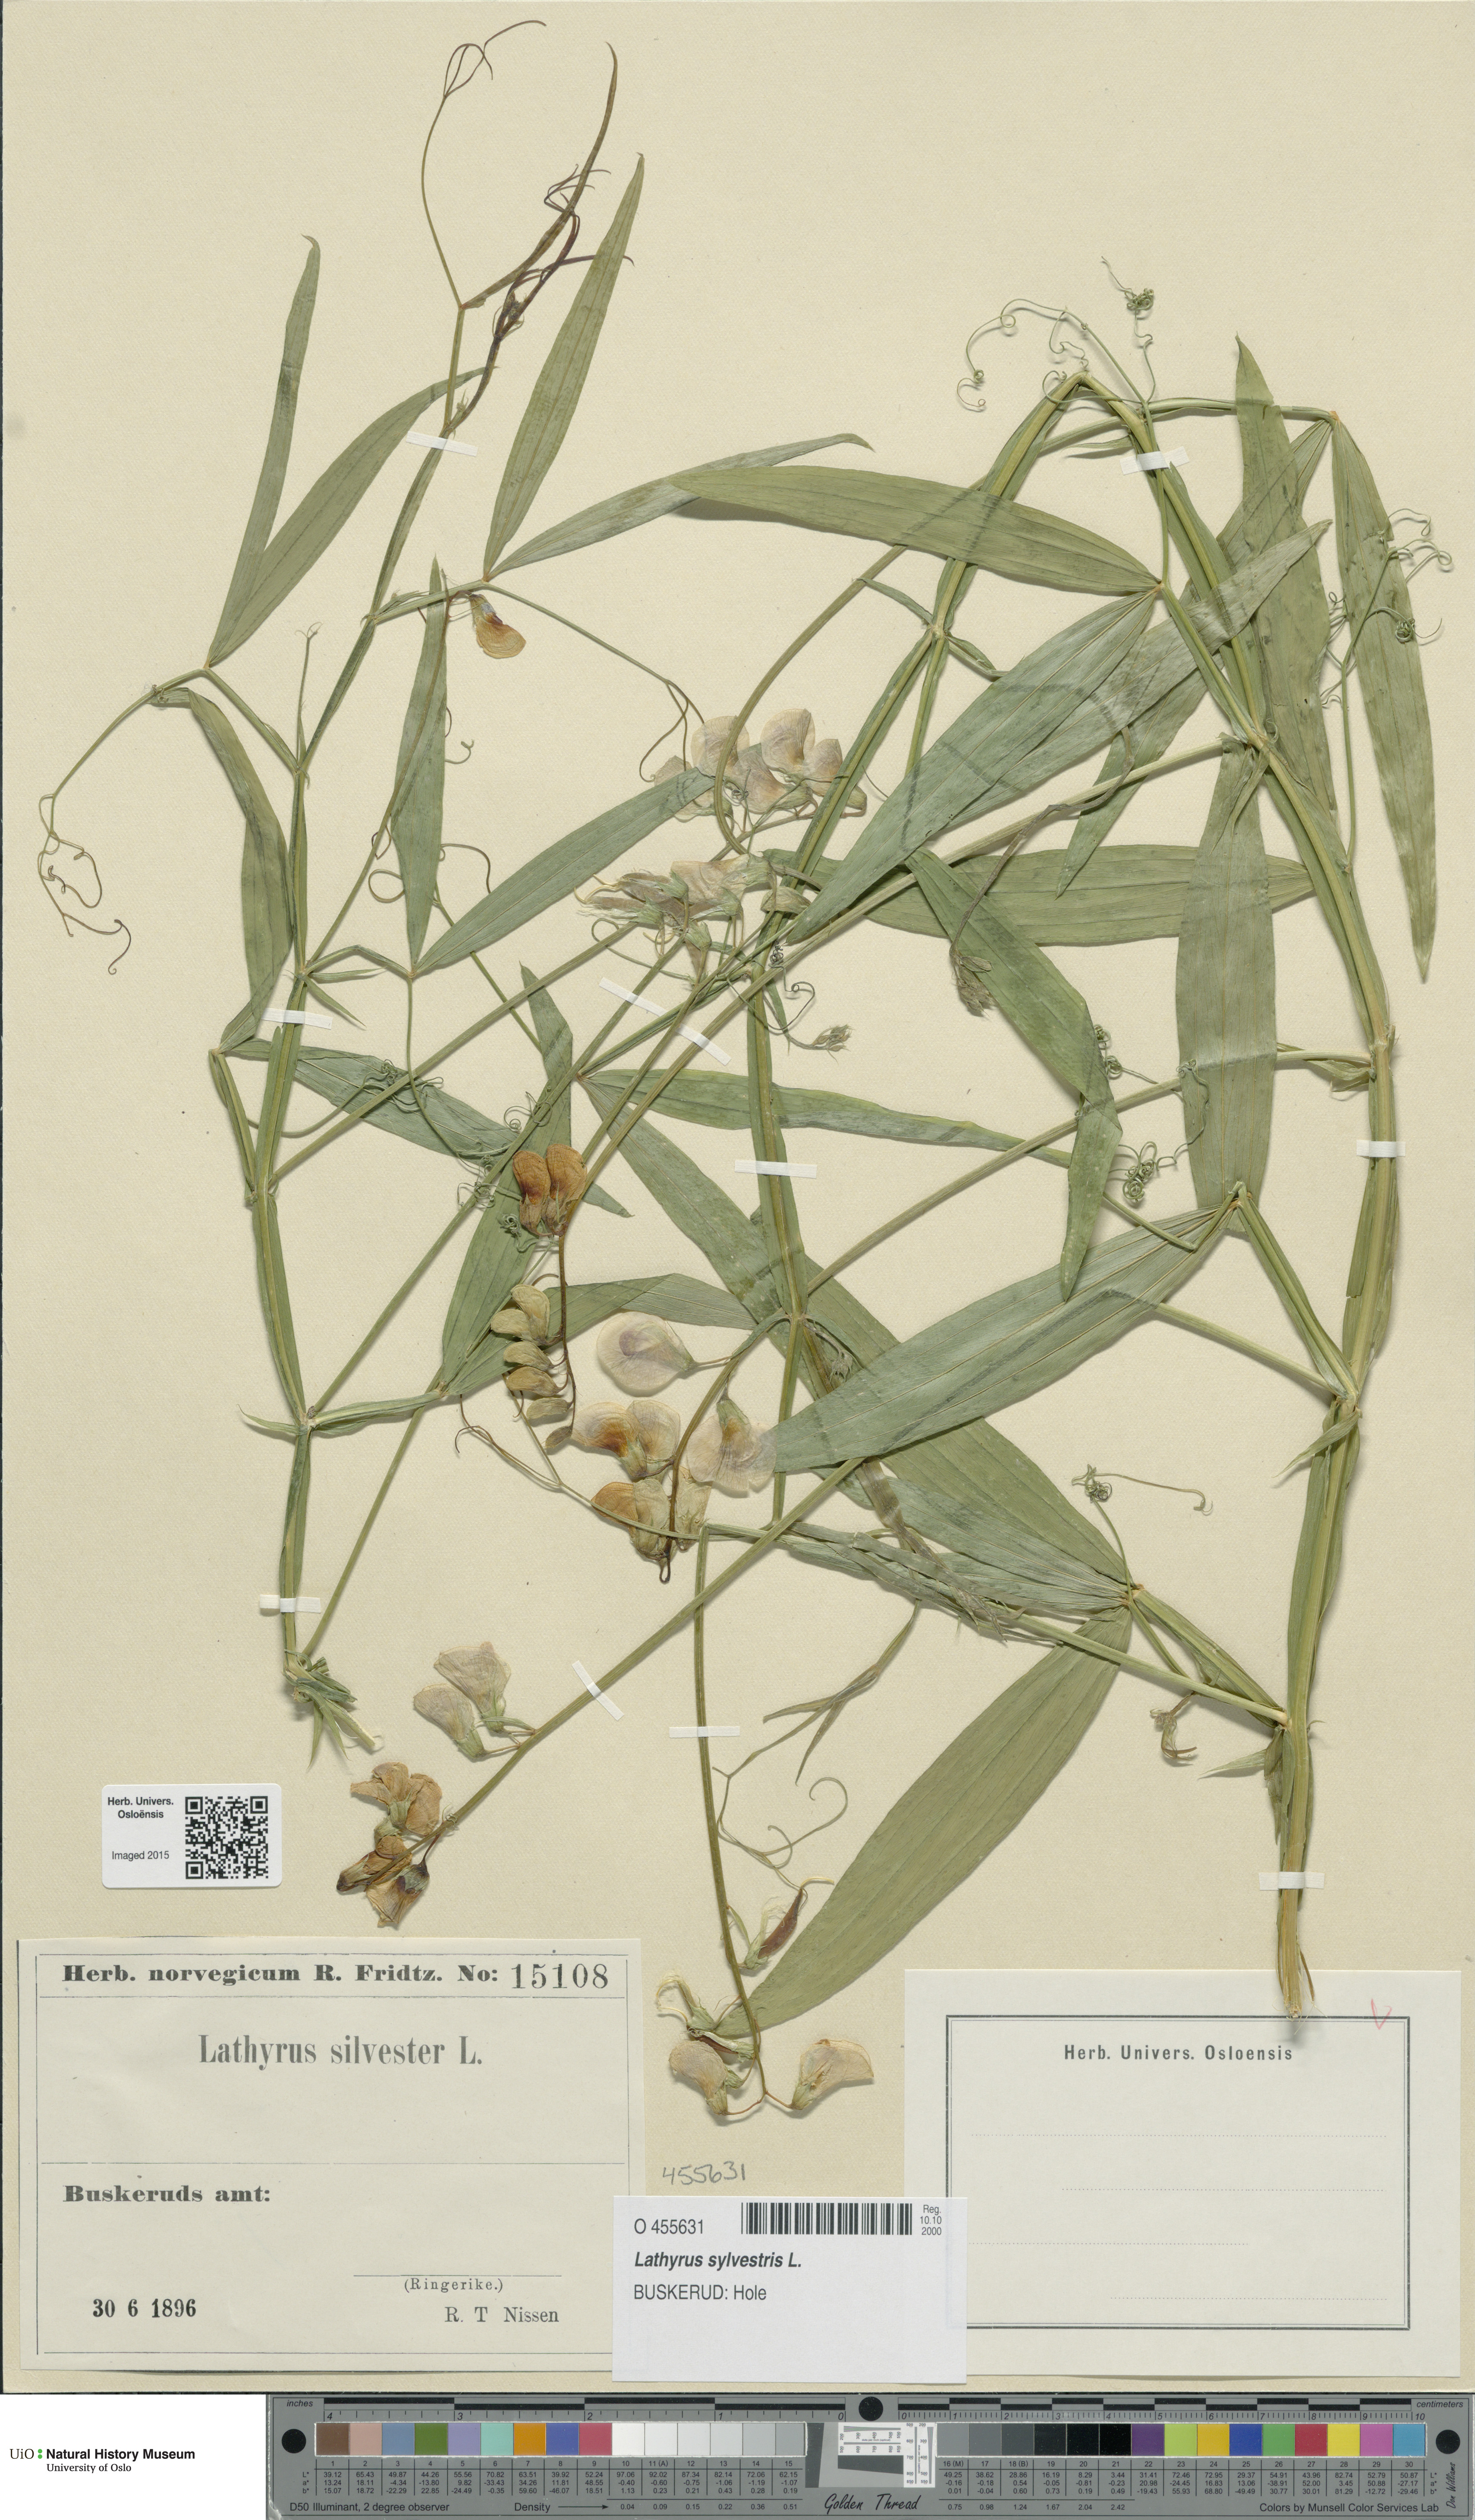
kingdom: Plantae
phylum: Tracheophyta
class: Magnoliopsida
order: Fabales
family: Fabaceae
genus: Lathyrus
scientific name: Lathyrus sylvestris
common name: Flat pea
